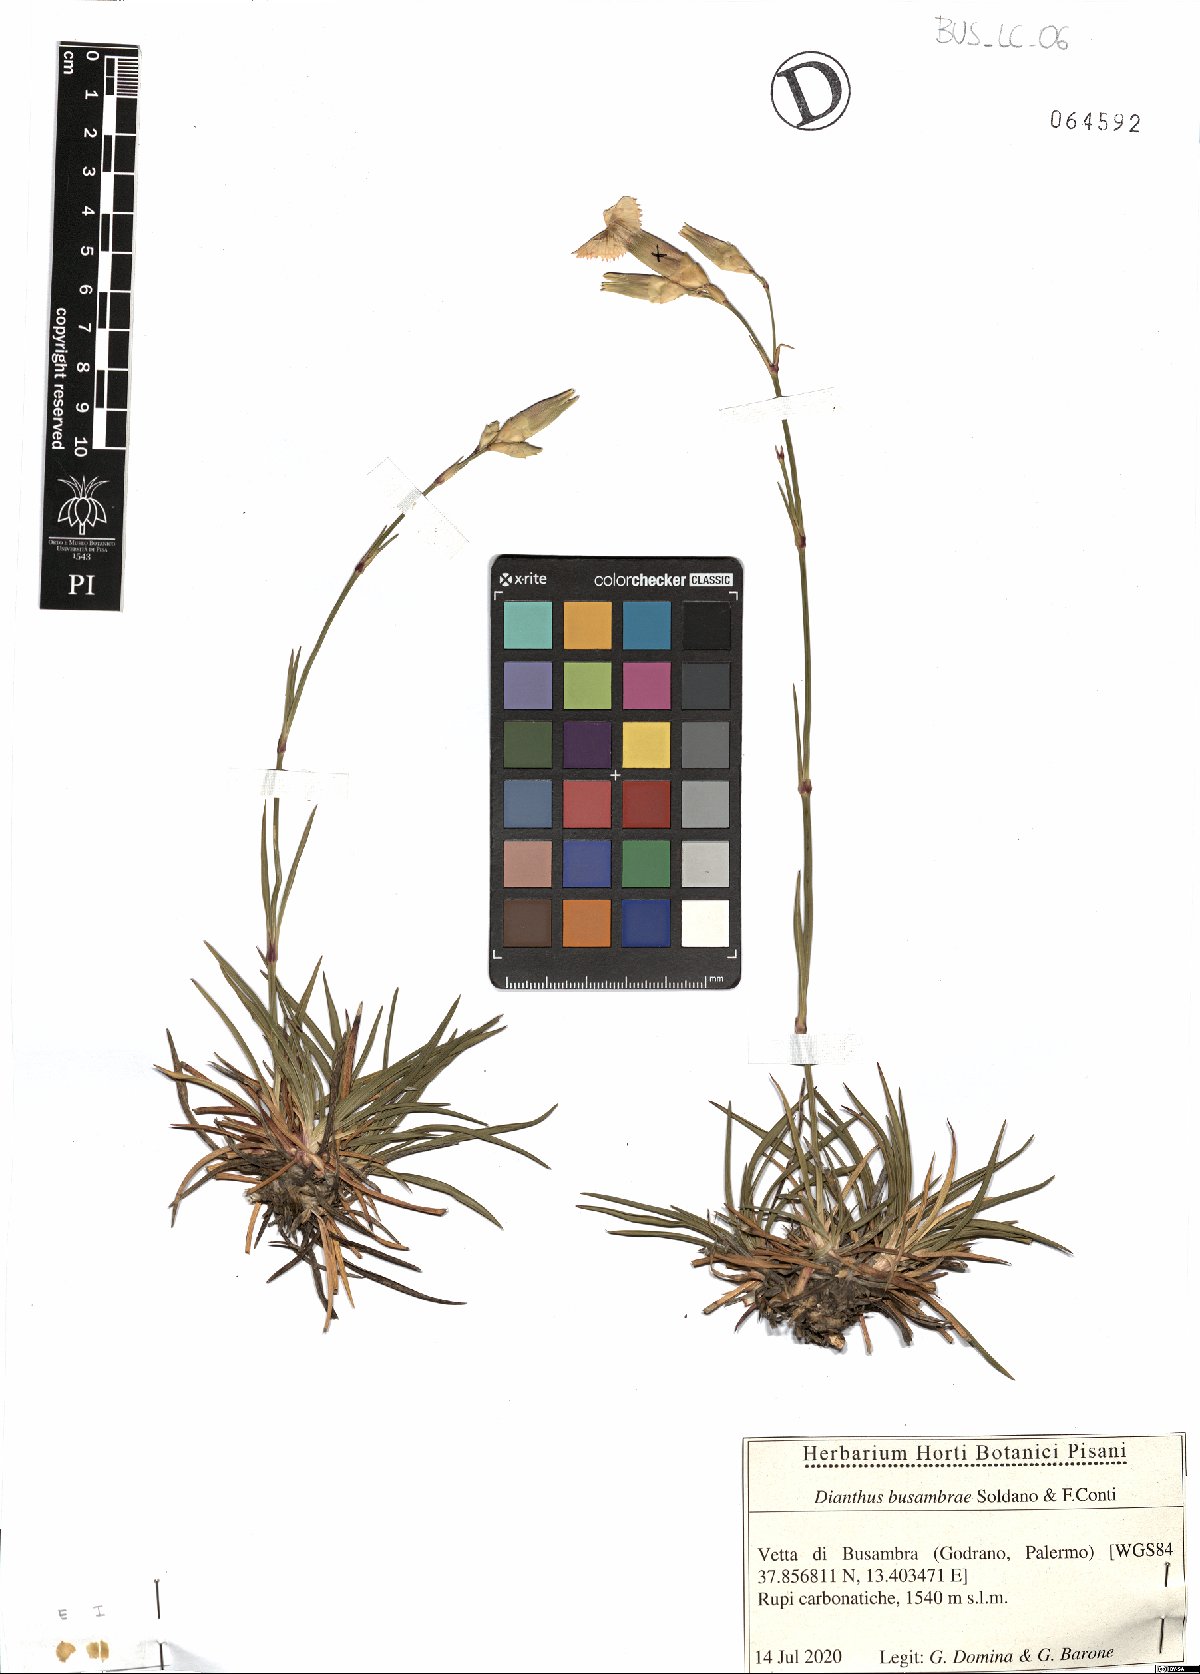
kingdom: Plantae
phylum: Tracheophyta
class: Magnoliopsida
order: Caryophyllales
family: Caryophyllaceae
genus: Dianthus
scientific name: Dianthus busambrae
